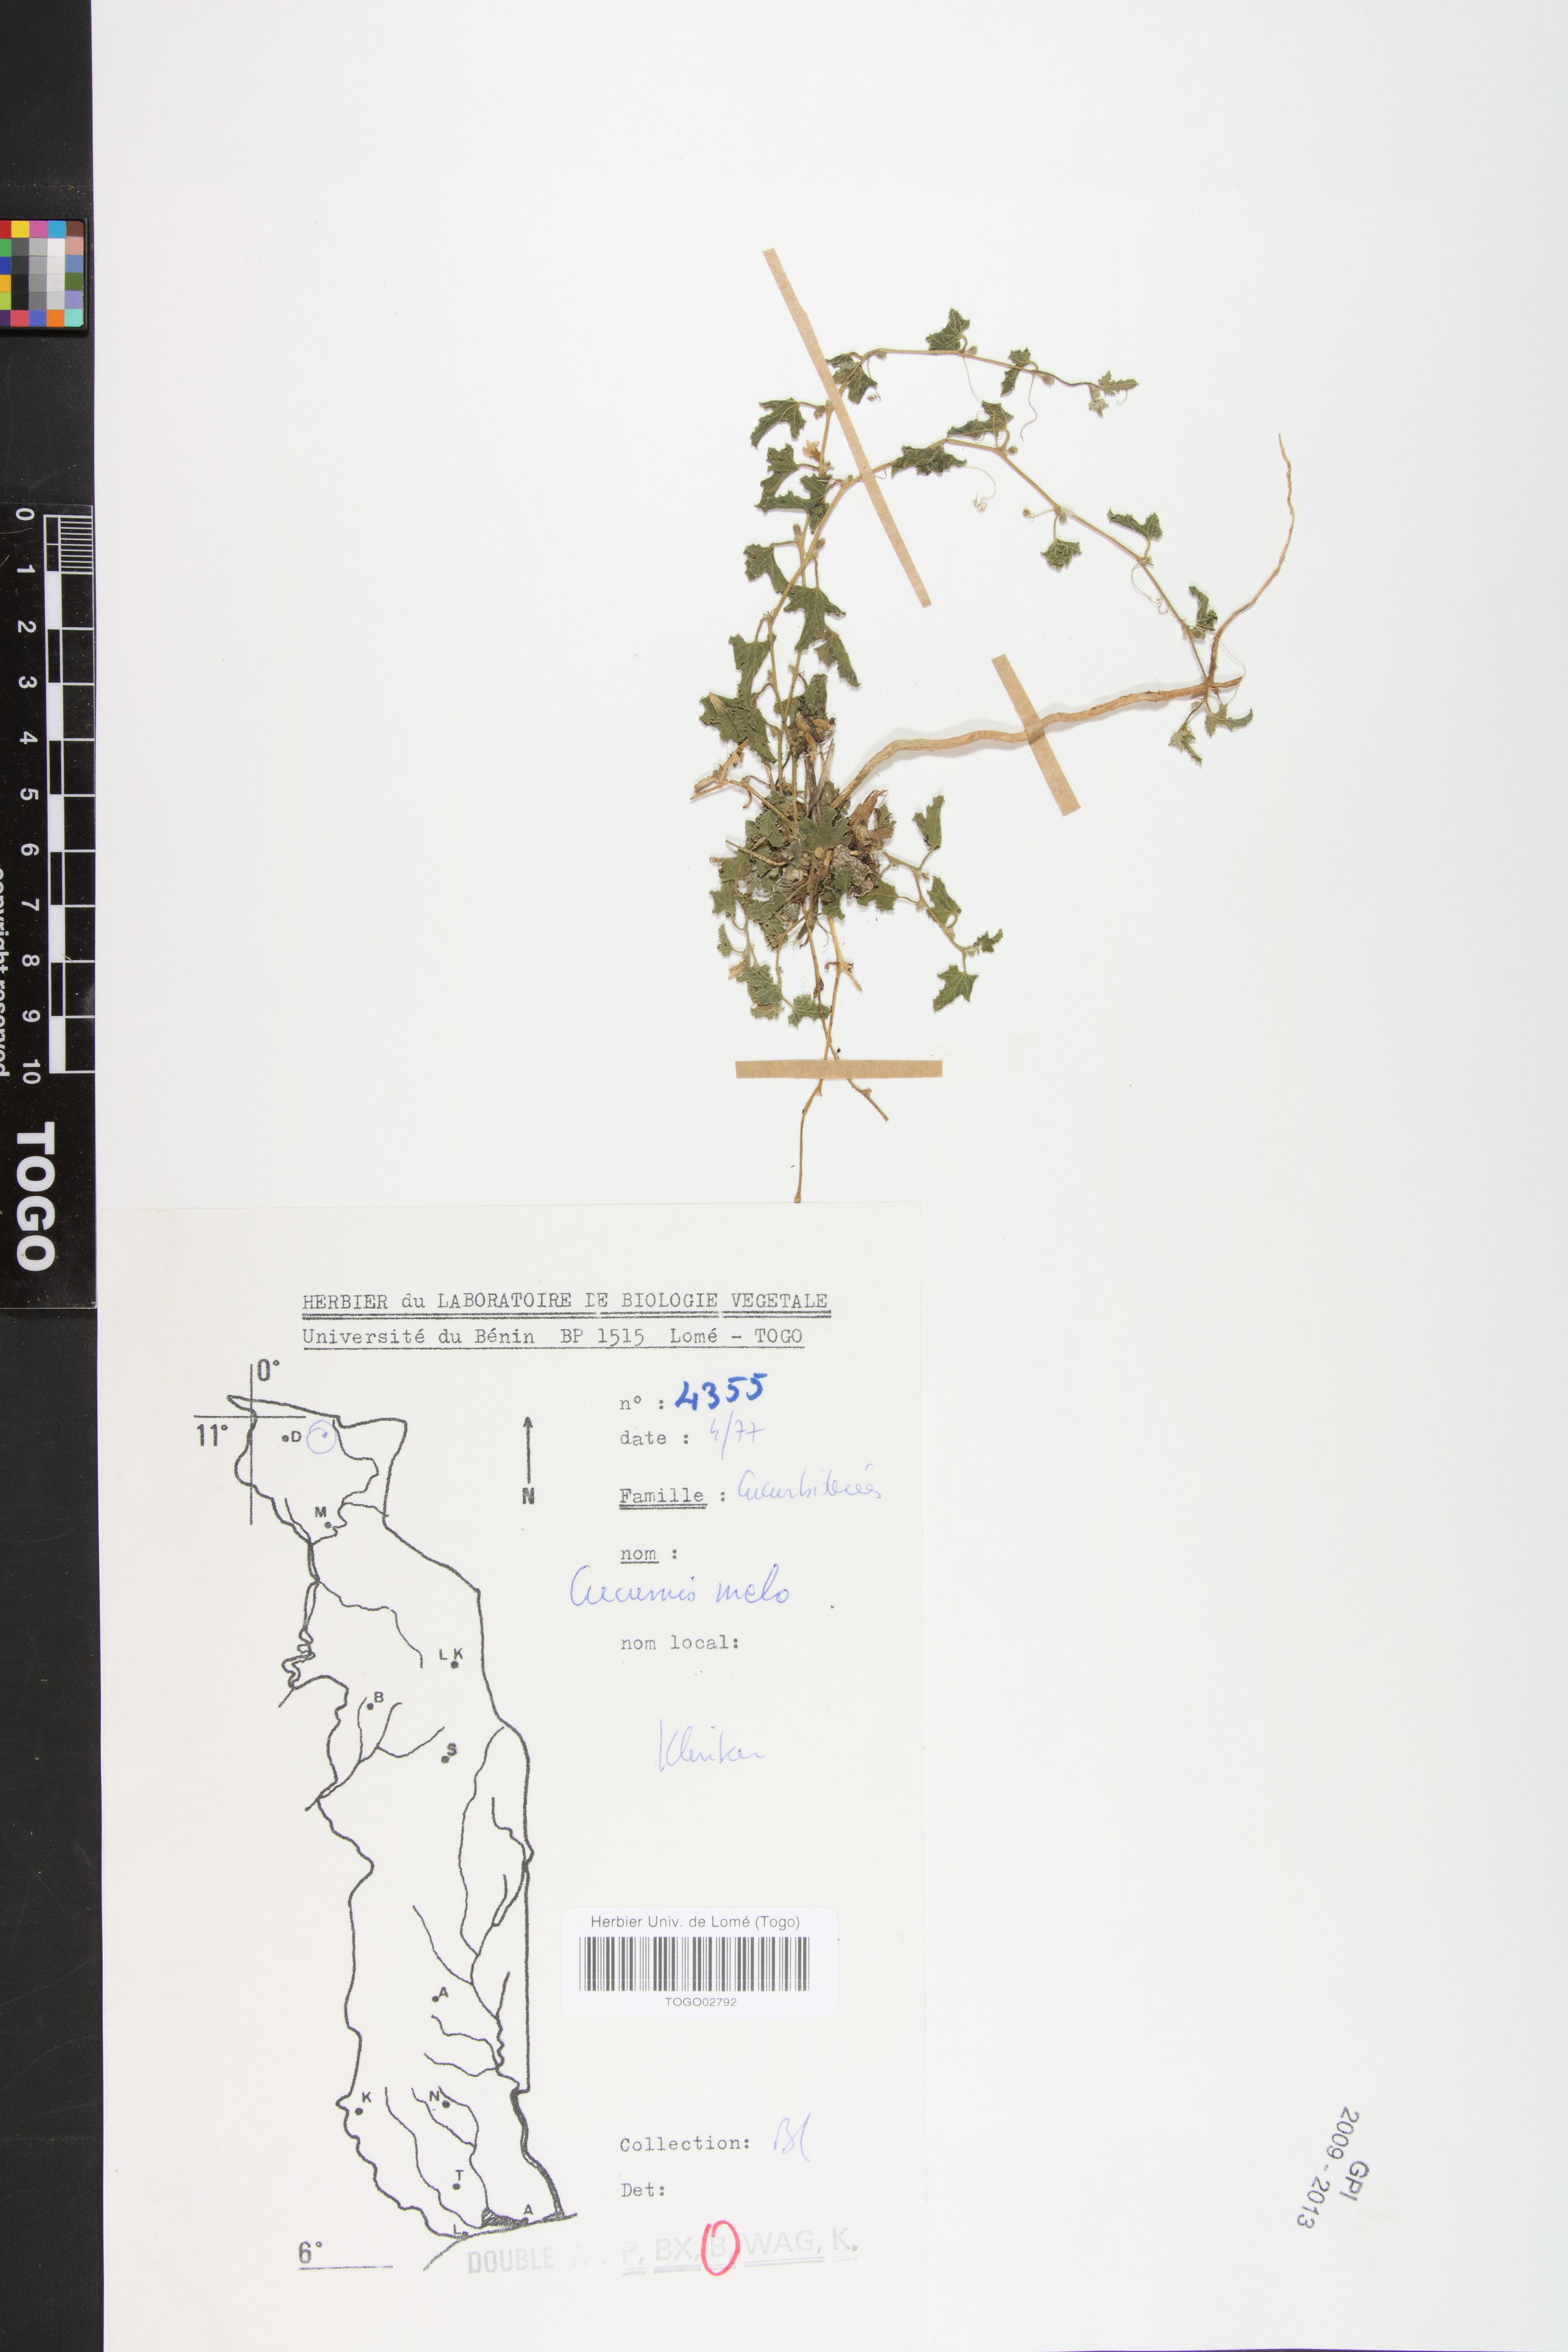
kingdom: Plantae
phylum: Tracheophyta
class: Magnoliopsida
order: Cucurbitales
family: Cucurbitaceae
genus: Cucumis
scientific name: Cucumis melo
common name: Melon
